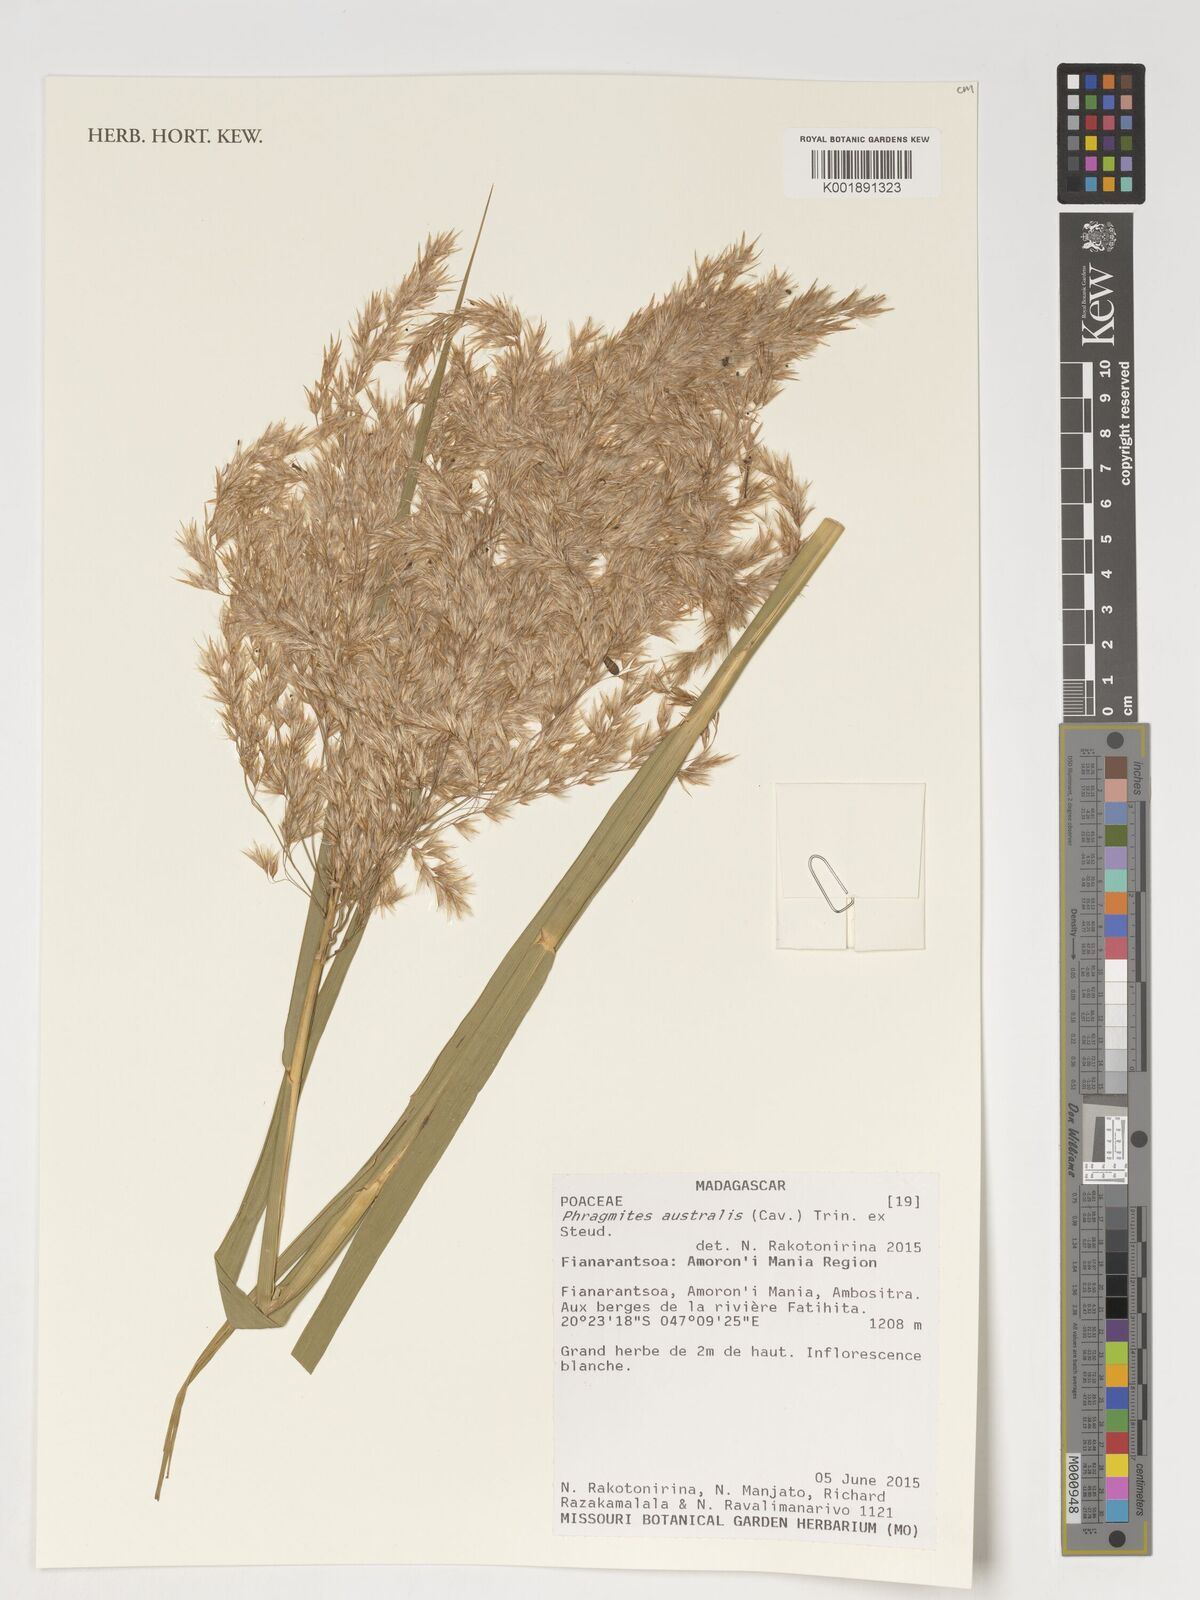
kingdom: Plantae
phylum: Tracheophyta
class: Liliopsida
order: Poales
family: Poaceae
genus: Phragmites
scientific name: Phragmites australis
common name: Common reed
